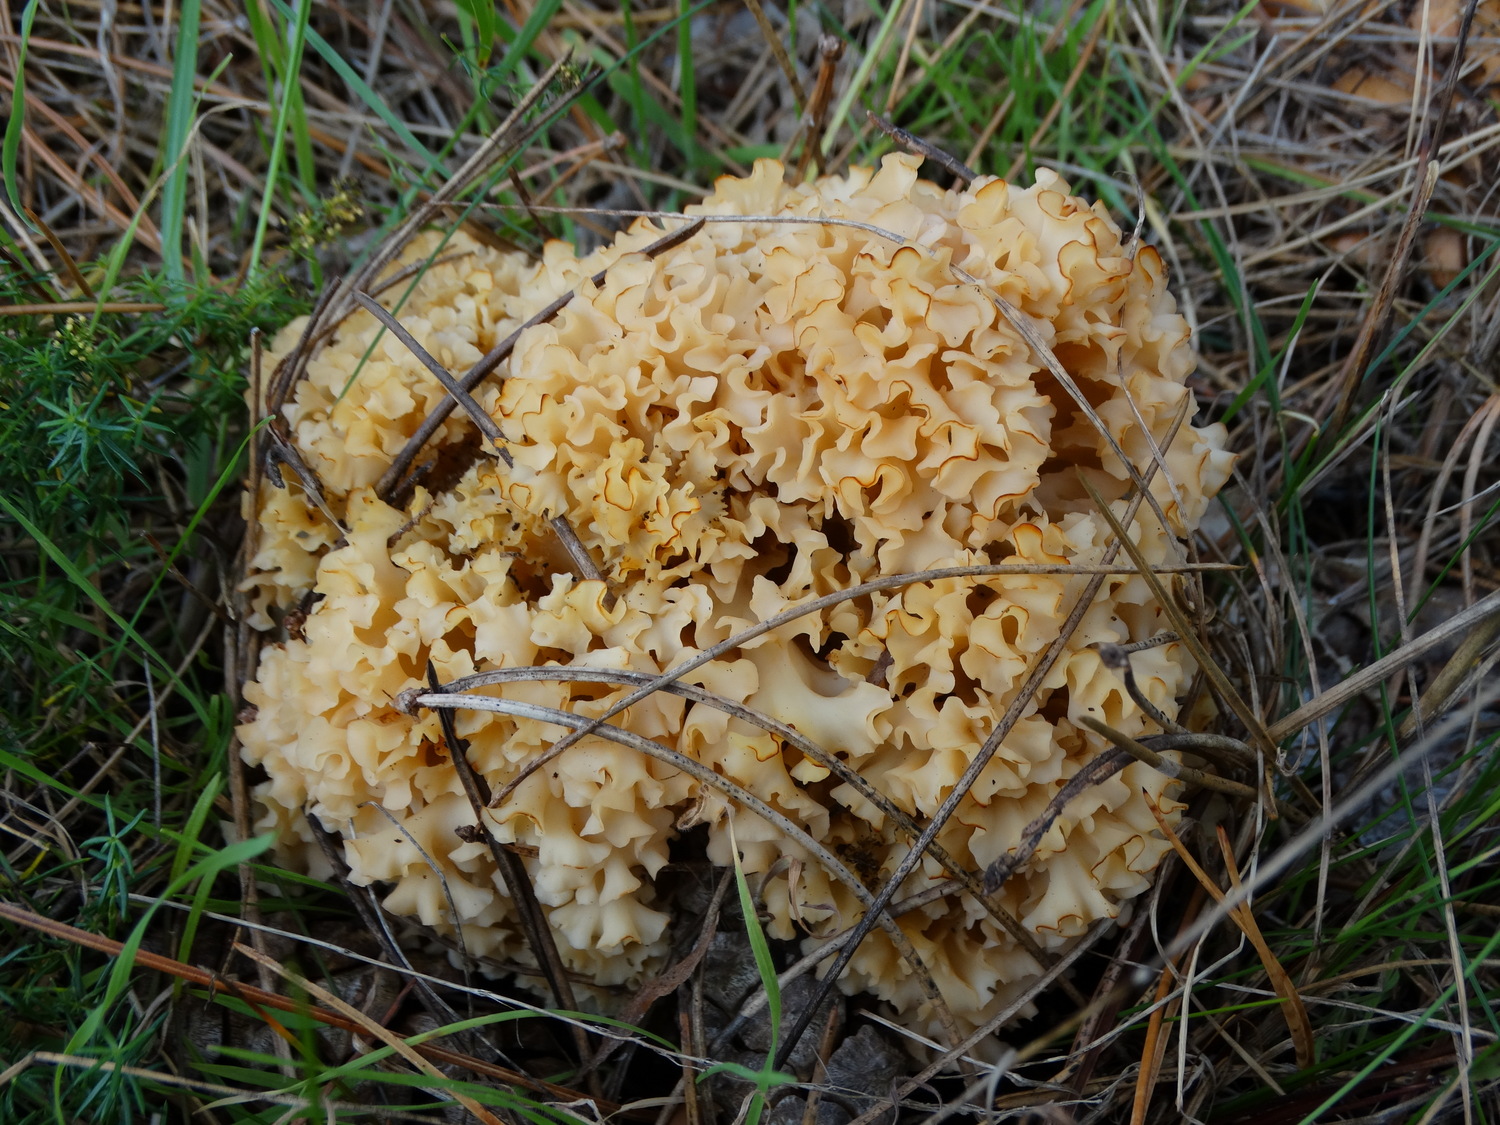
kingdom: Fungi
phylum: Basidiomycota
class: Agaricomycetes
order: Polyporales
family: Sparassidaceae
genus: Sparassis
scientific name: Sparassis crispa
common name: kruset blomkålssvamp
